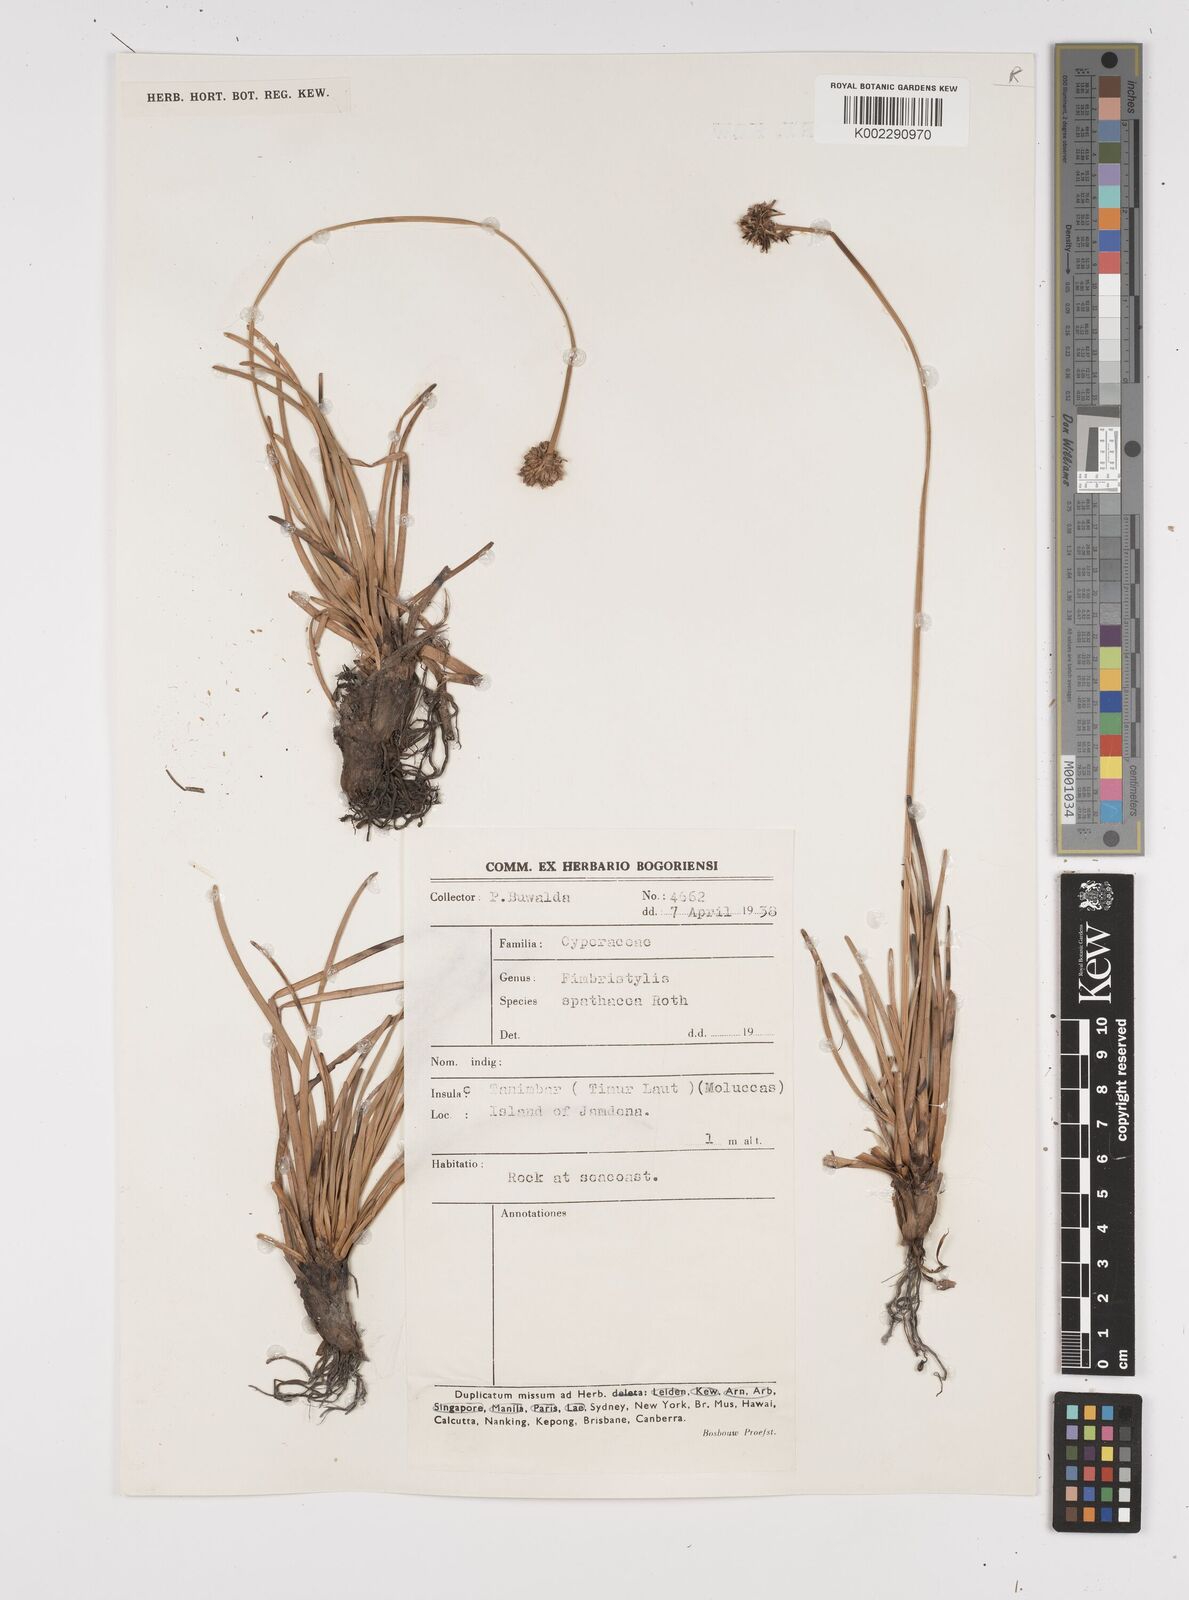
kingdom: Plantae
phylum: Tracheophyta
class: Liliopsida
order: Poales
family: Cyperaceae
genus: Fimbristylis
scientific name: Fimbristylis cymosa
